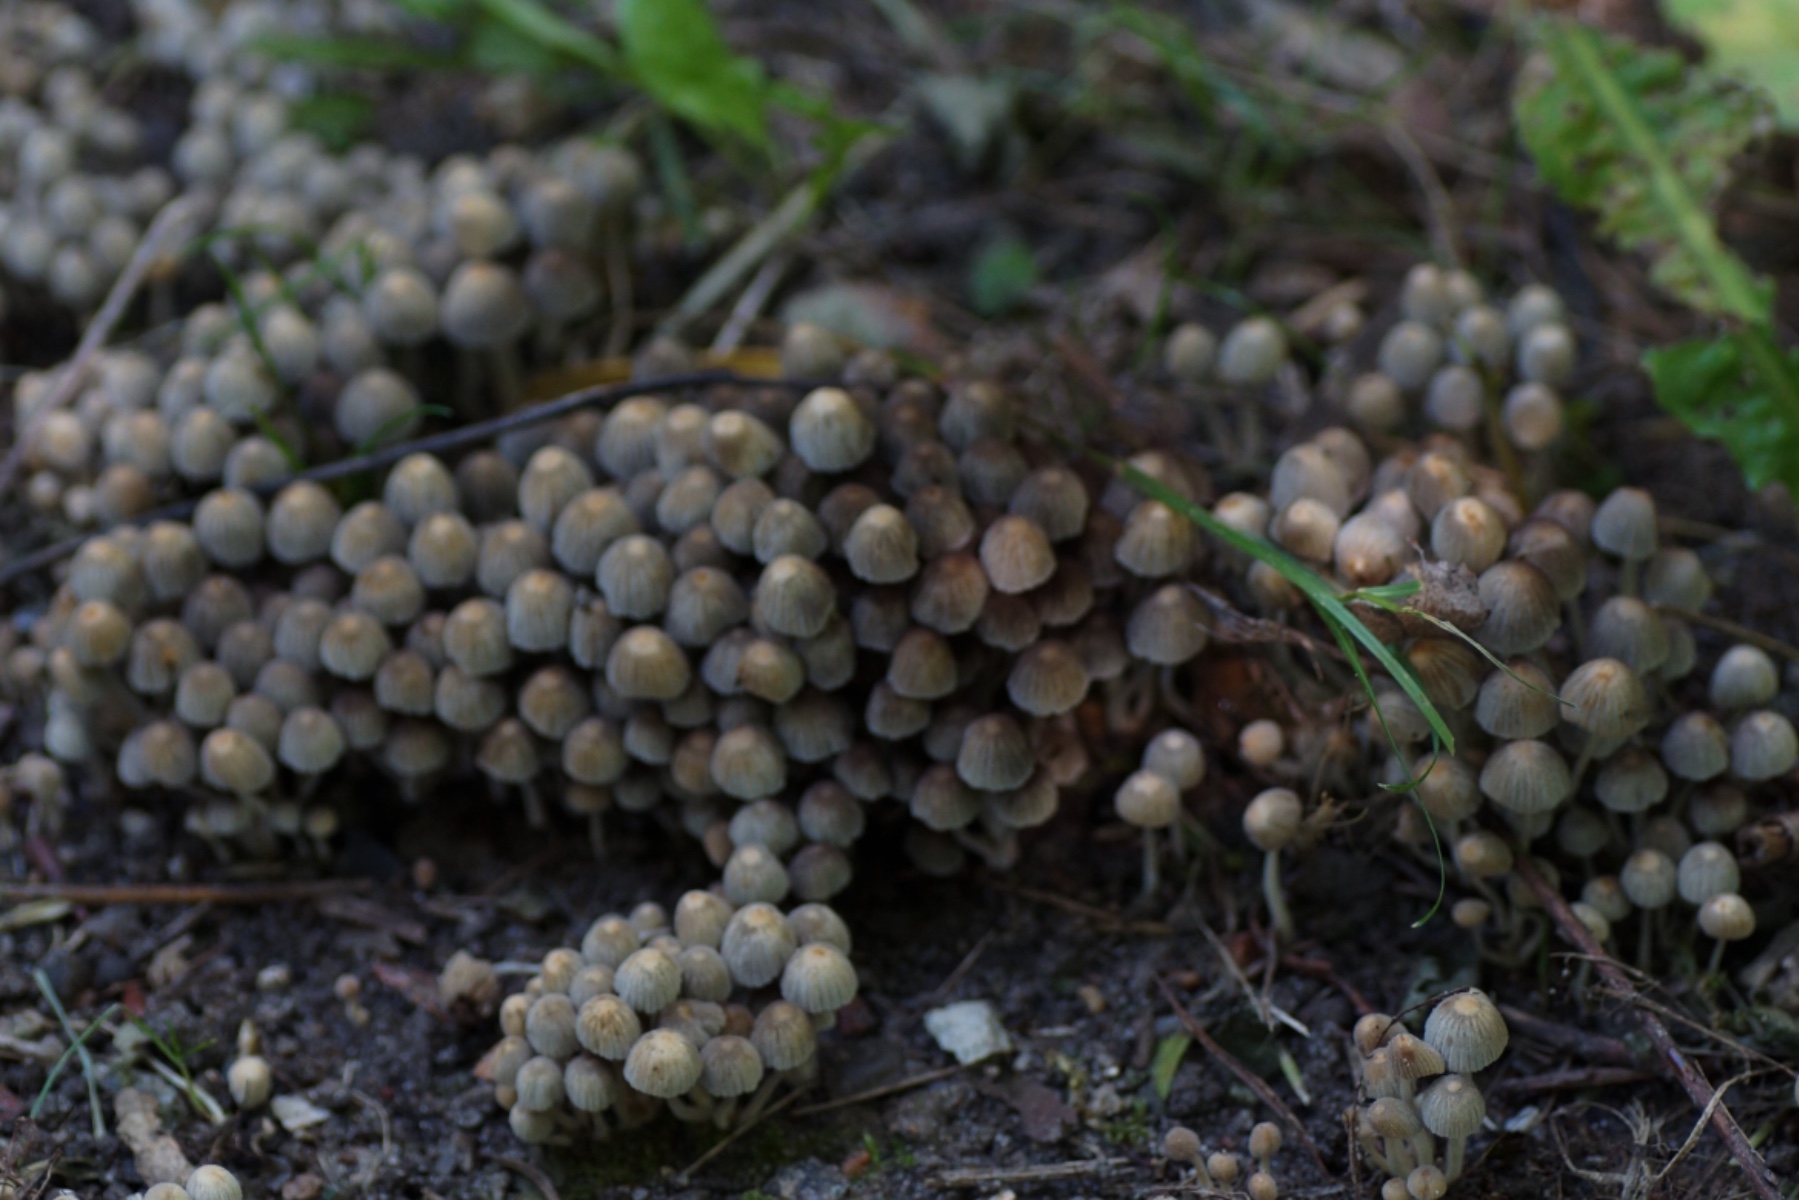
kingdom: Fungi
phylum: Basidiomycota
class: Agaricomycetes
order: Agaricales
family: Psathyrellaceae
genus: Coprinellus
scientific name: Coprinellus disseminatus
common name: bredsået blækhat
